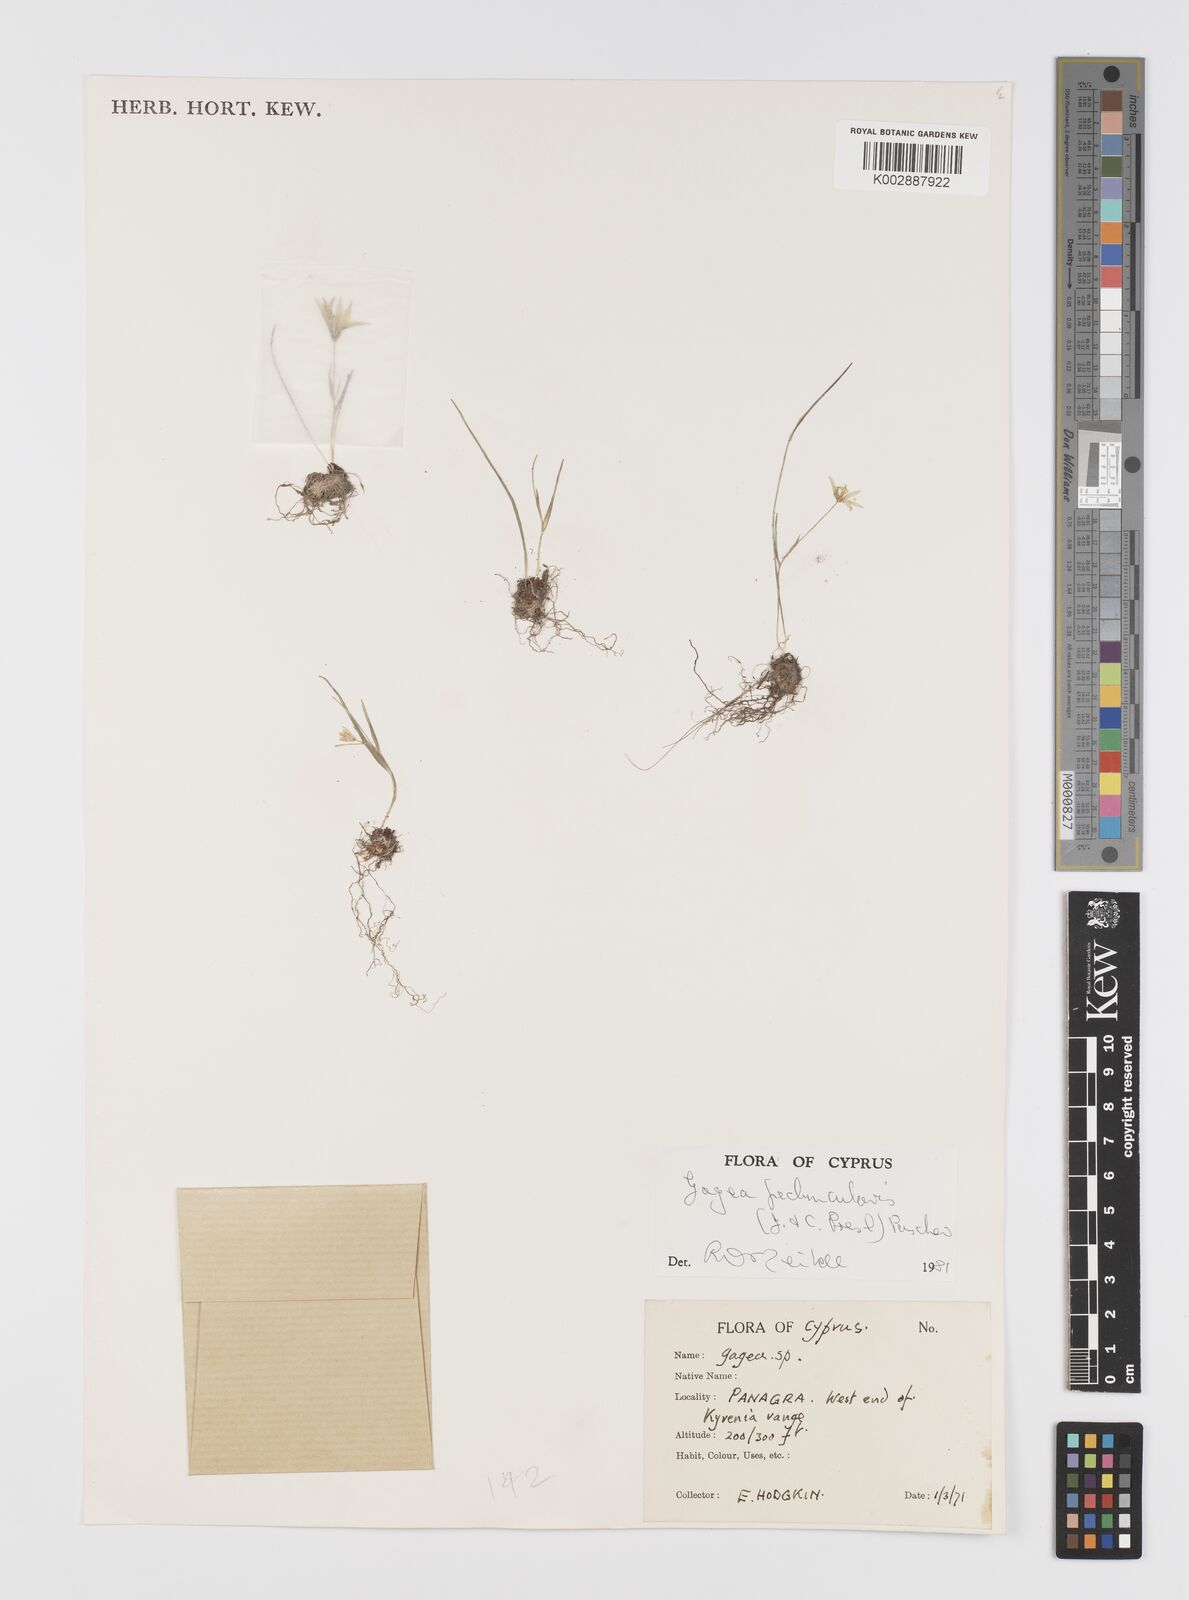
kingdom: Plantae
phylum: Tracheophyta
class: Liliopsida
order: Liliales
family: Liliaceae
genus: Gagea
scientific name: Gagea peduncularis
